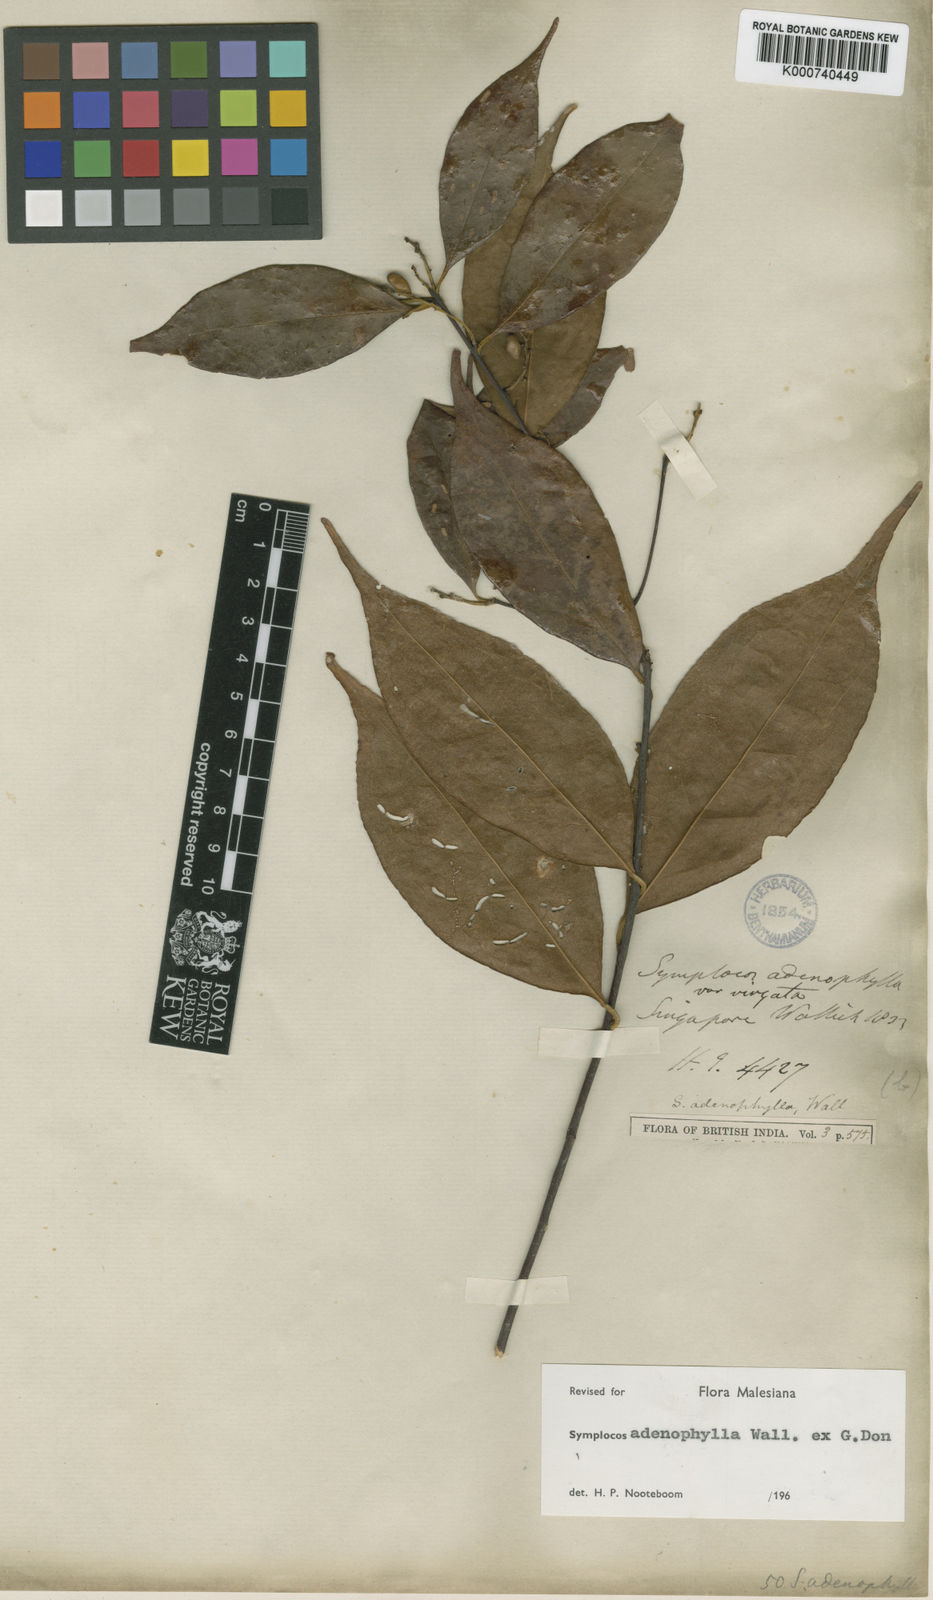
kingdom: Plantae
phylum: Tracheophyta
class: Magnoliopsida
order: Ericales
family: Symplocaceae
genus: Symplocos
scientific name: Symplocos
